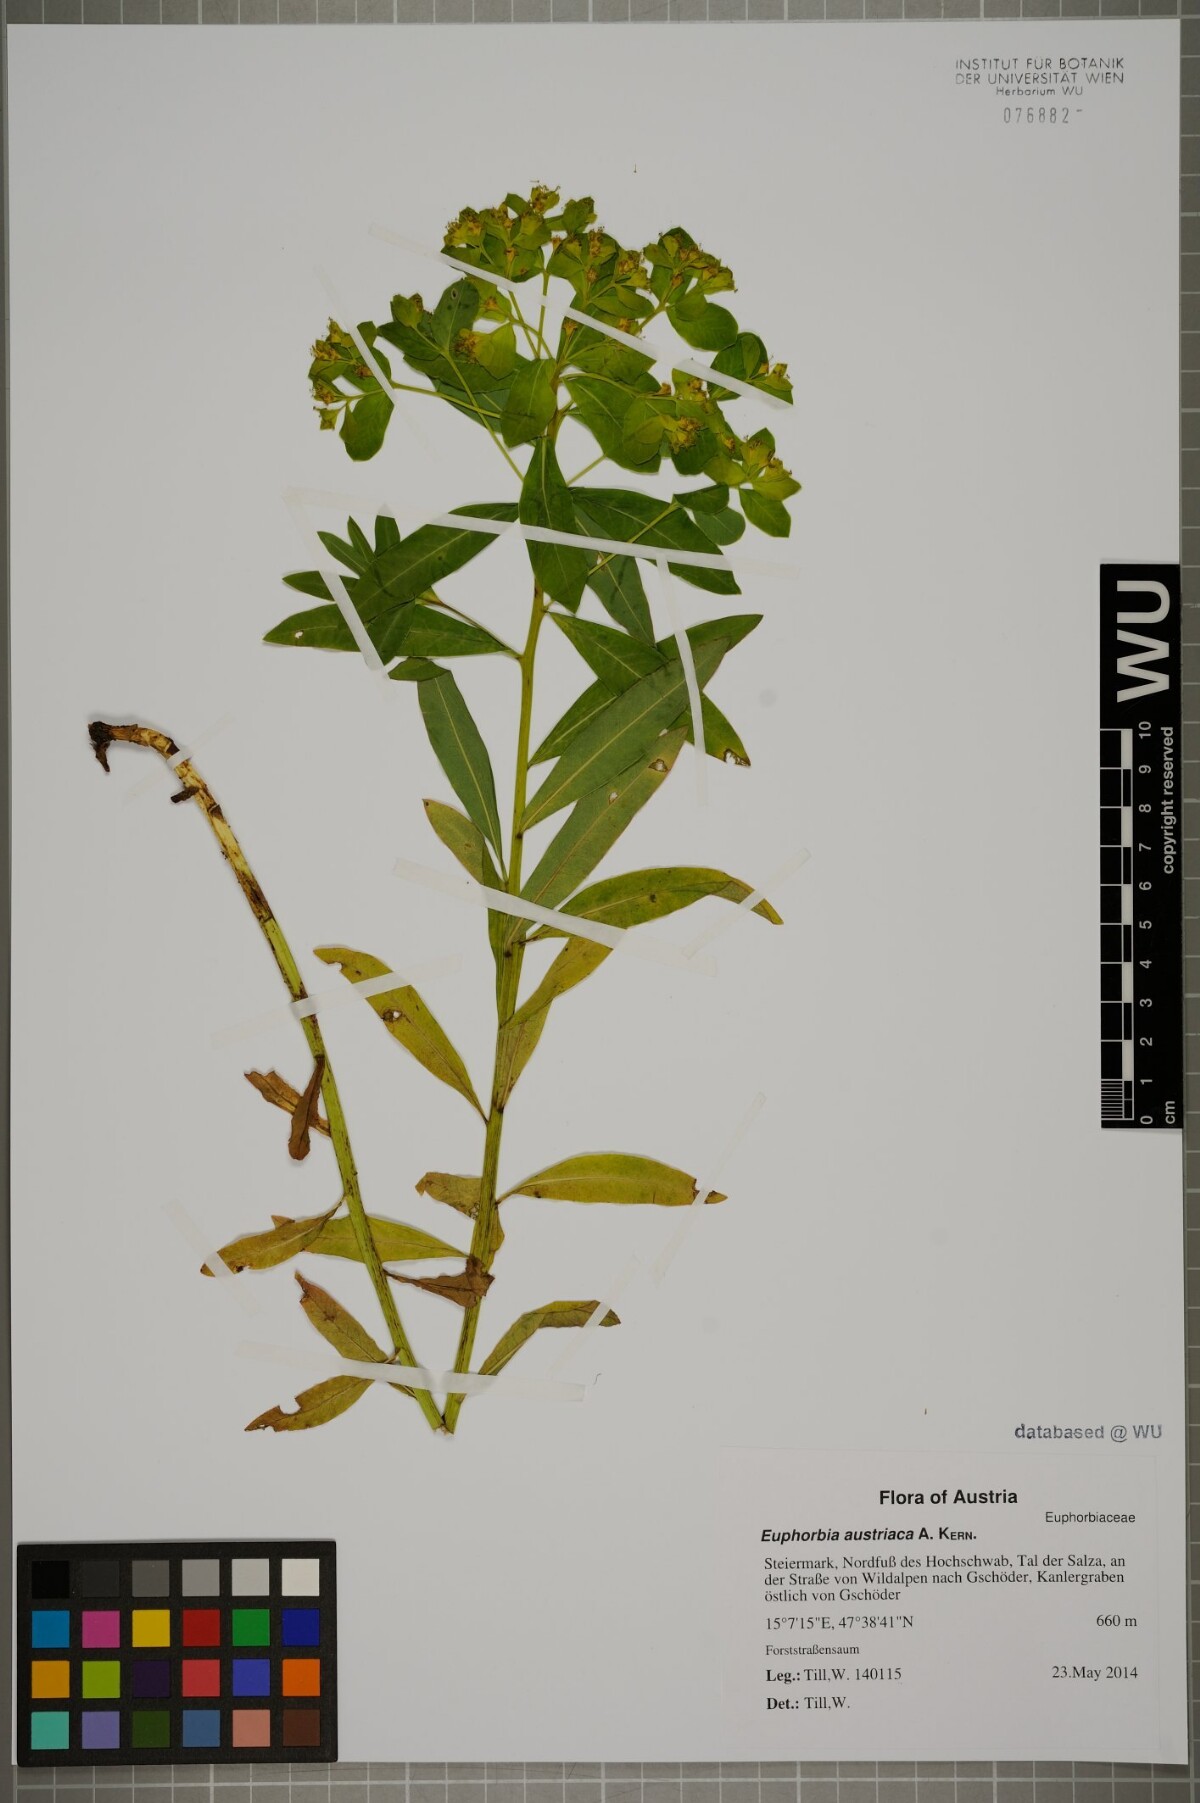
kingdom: Plantae
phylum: Tracheophyta
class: Magnoliopsida
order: Malpighiales
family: Euphorbiaceae
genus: Euphorbia
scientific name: Euphorbia austriaca
